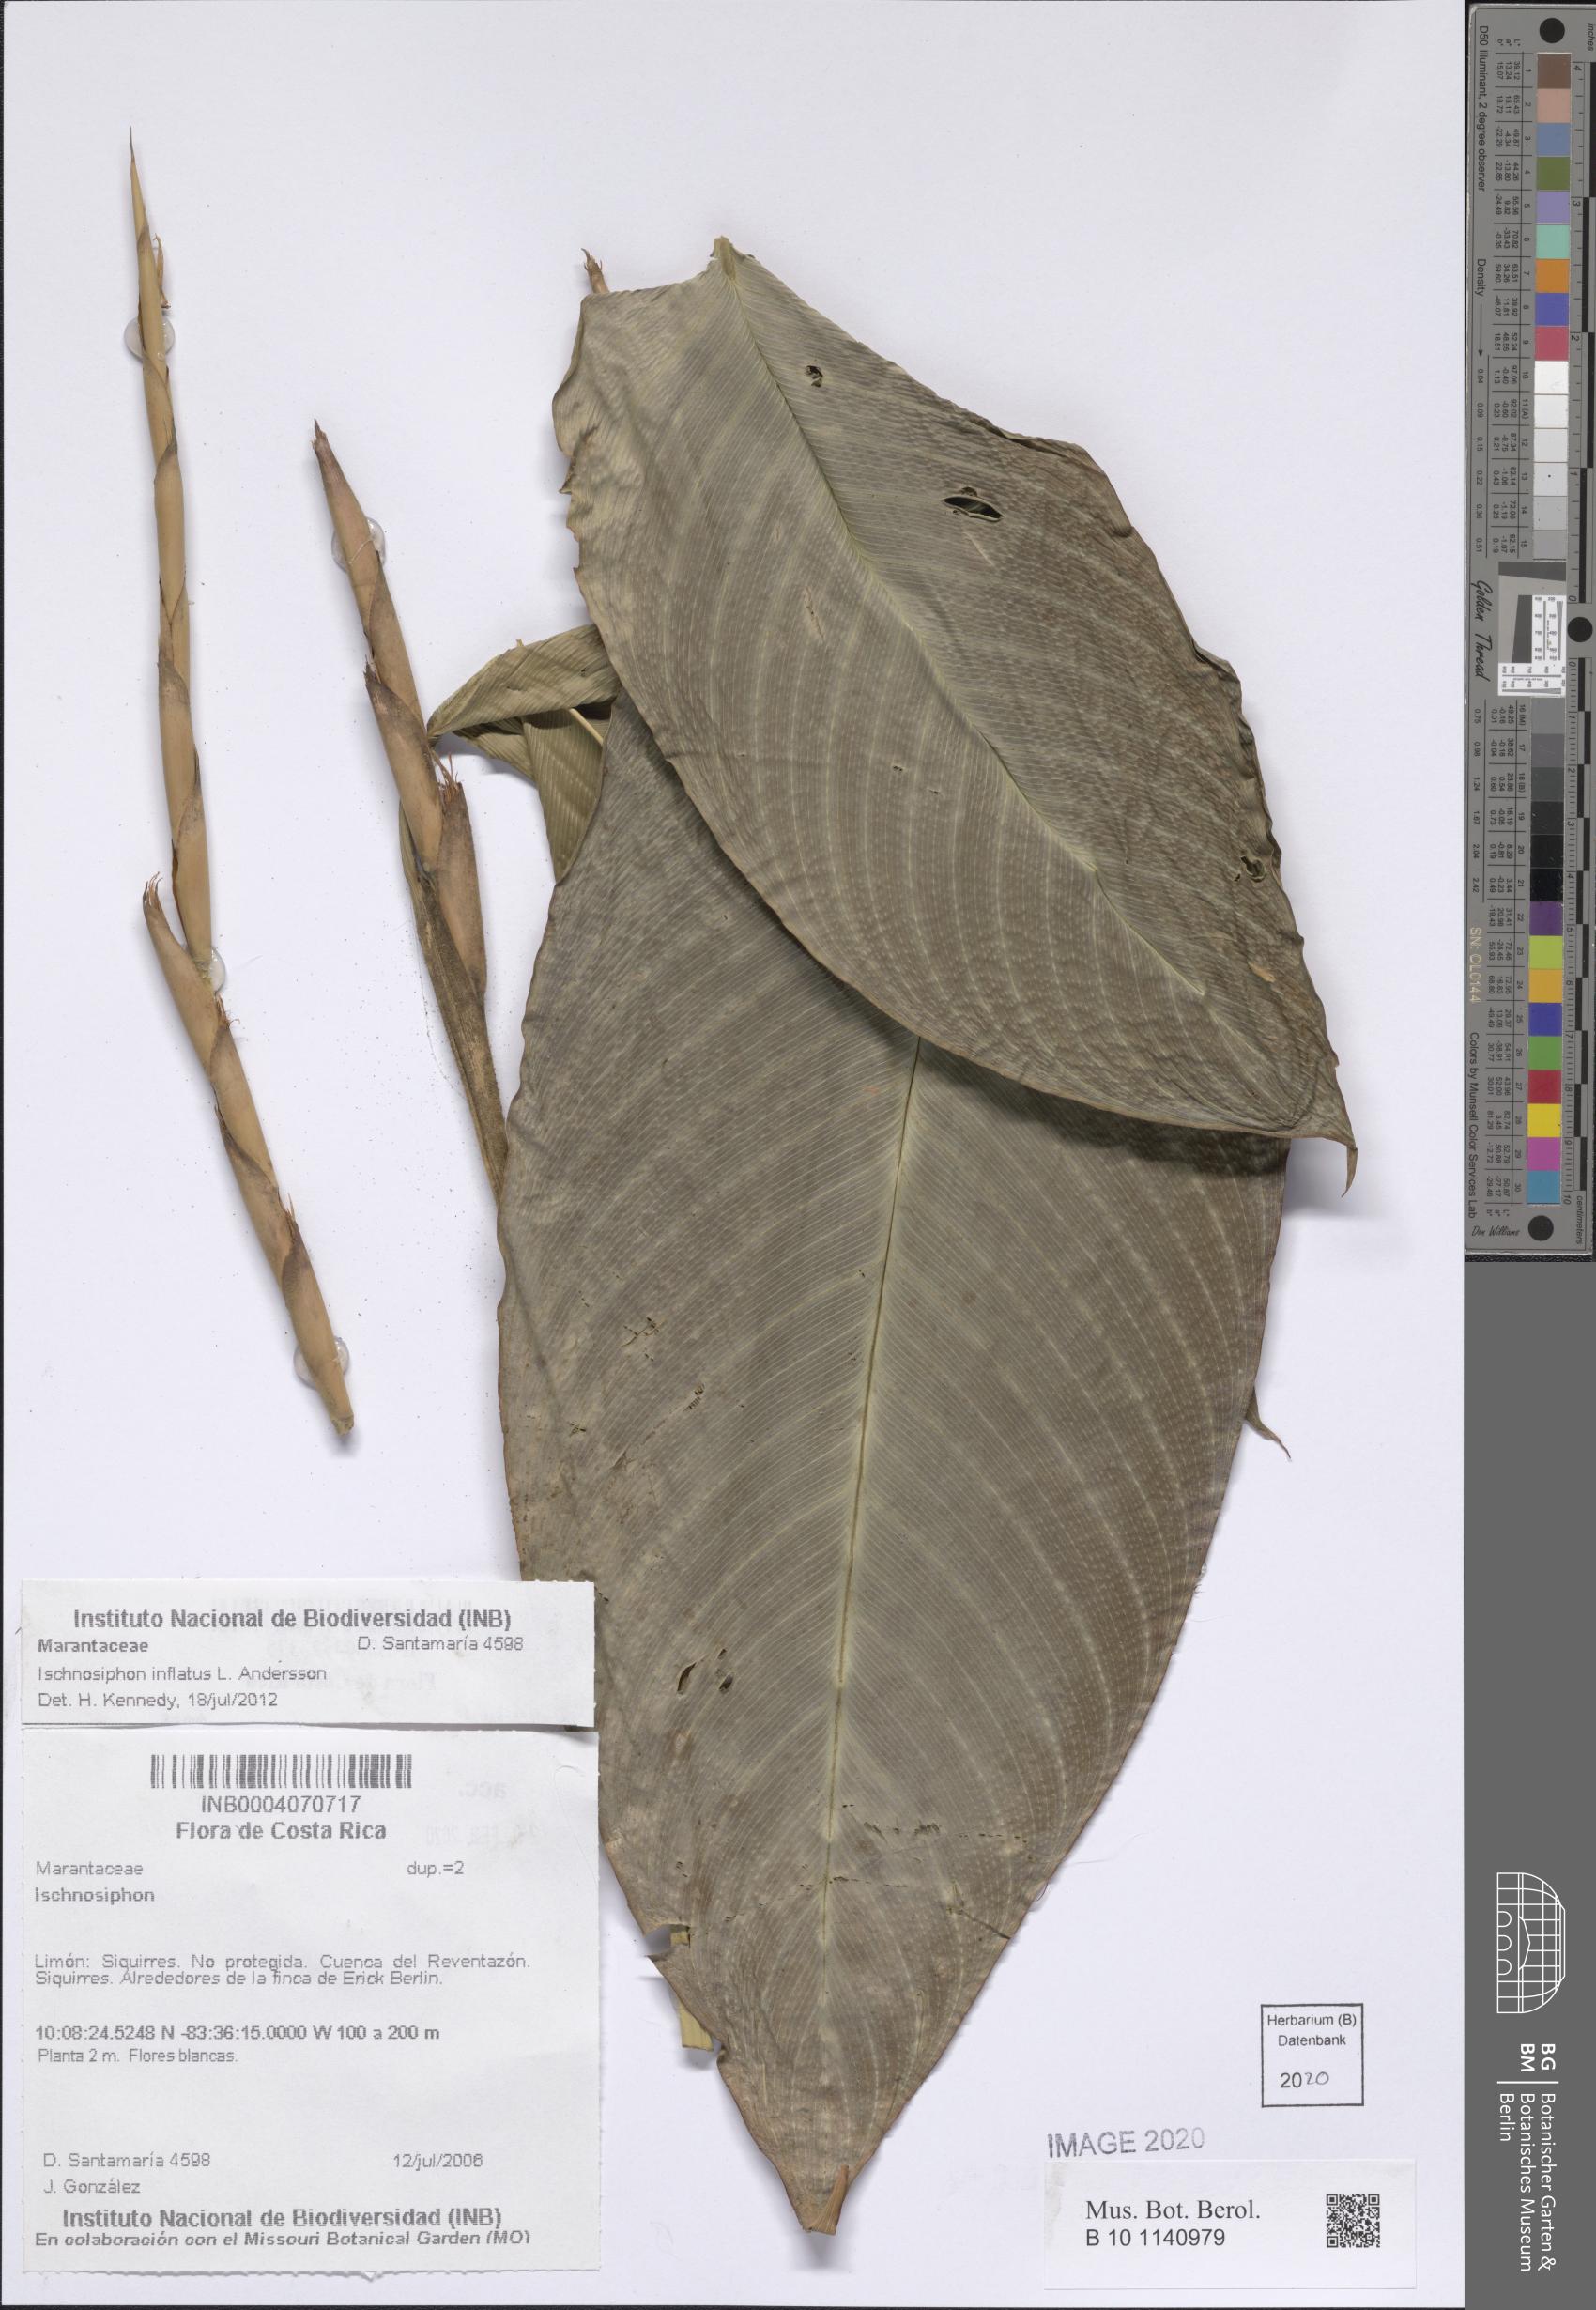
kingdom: Plantae
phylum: Tracheophyta
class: Liliopsida
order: Zingiberales
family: Marantaceae
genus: Ischnosiphon
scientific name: Ischnosiphon inflatus
